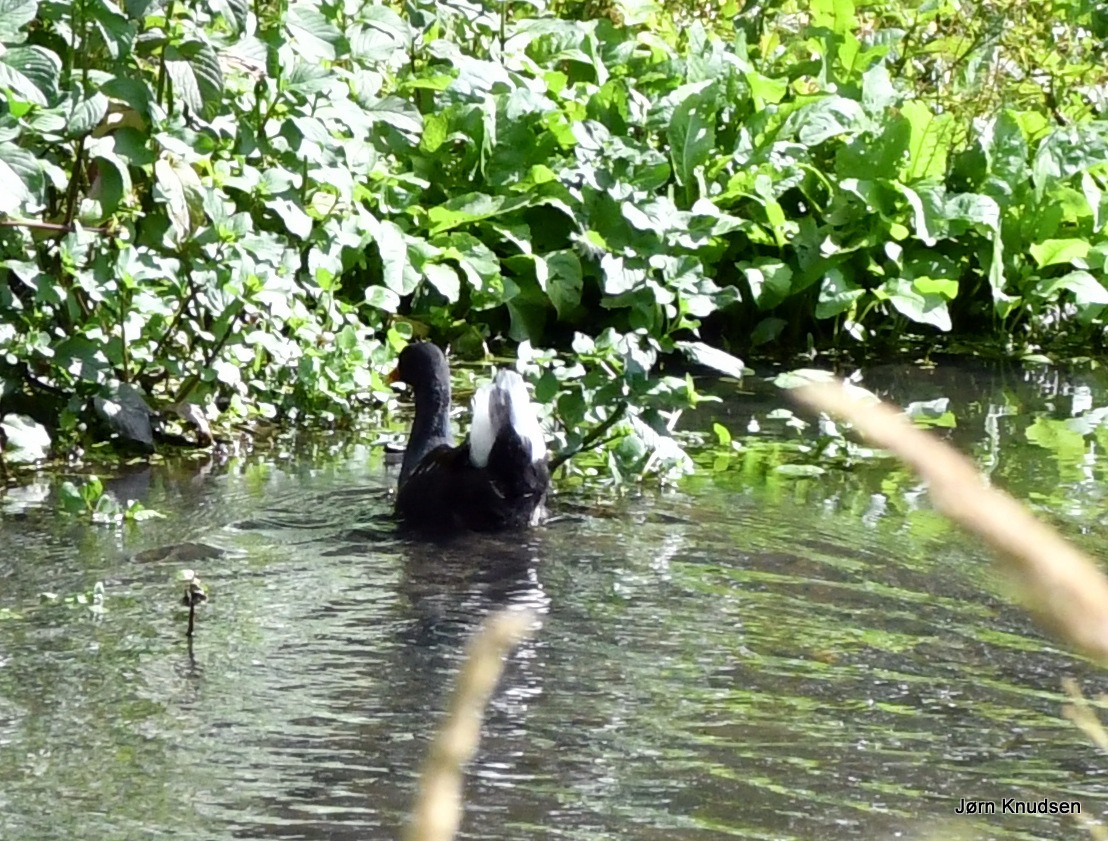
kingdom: Animalia
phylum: Chordata
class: Aves
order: Gruiformes
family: Rallidae
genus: Gallinula
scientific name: Gallinula chloropus
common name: Grønbenet rørhøne
